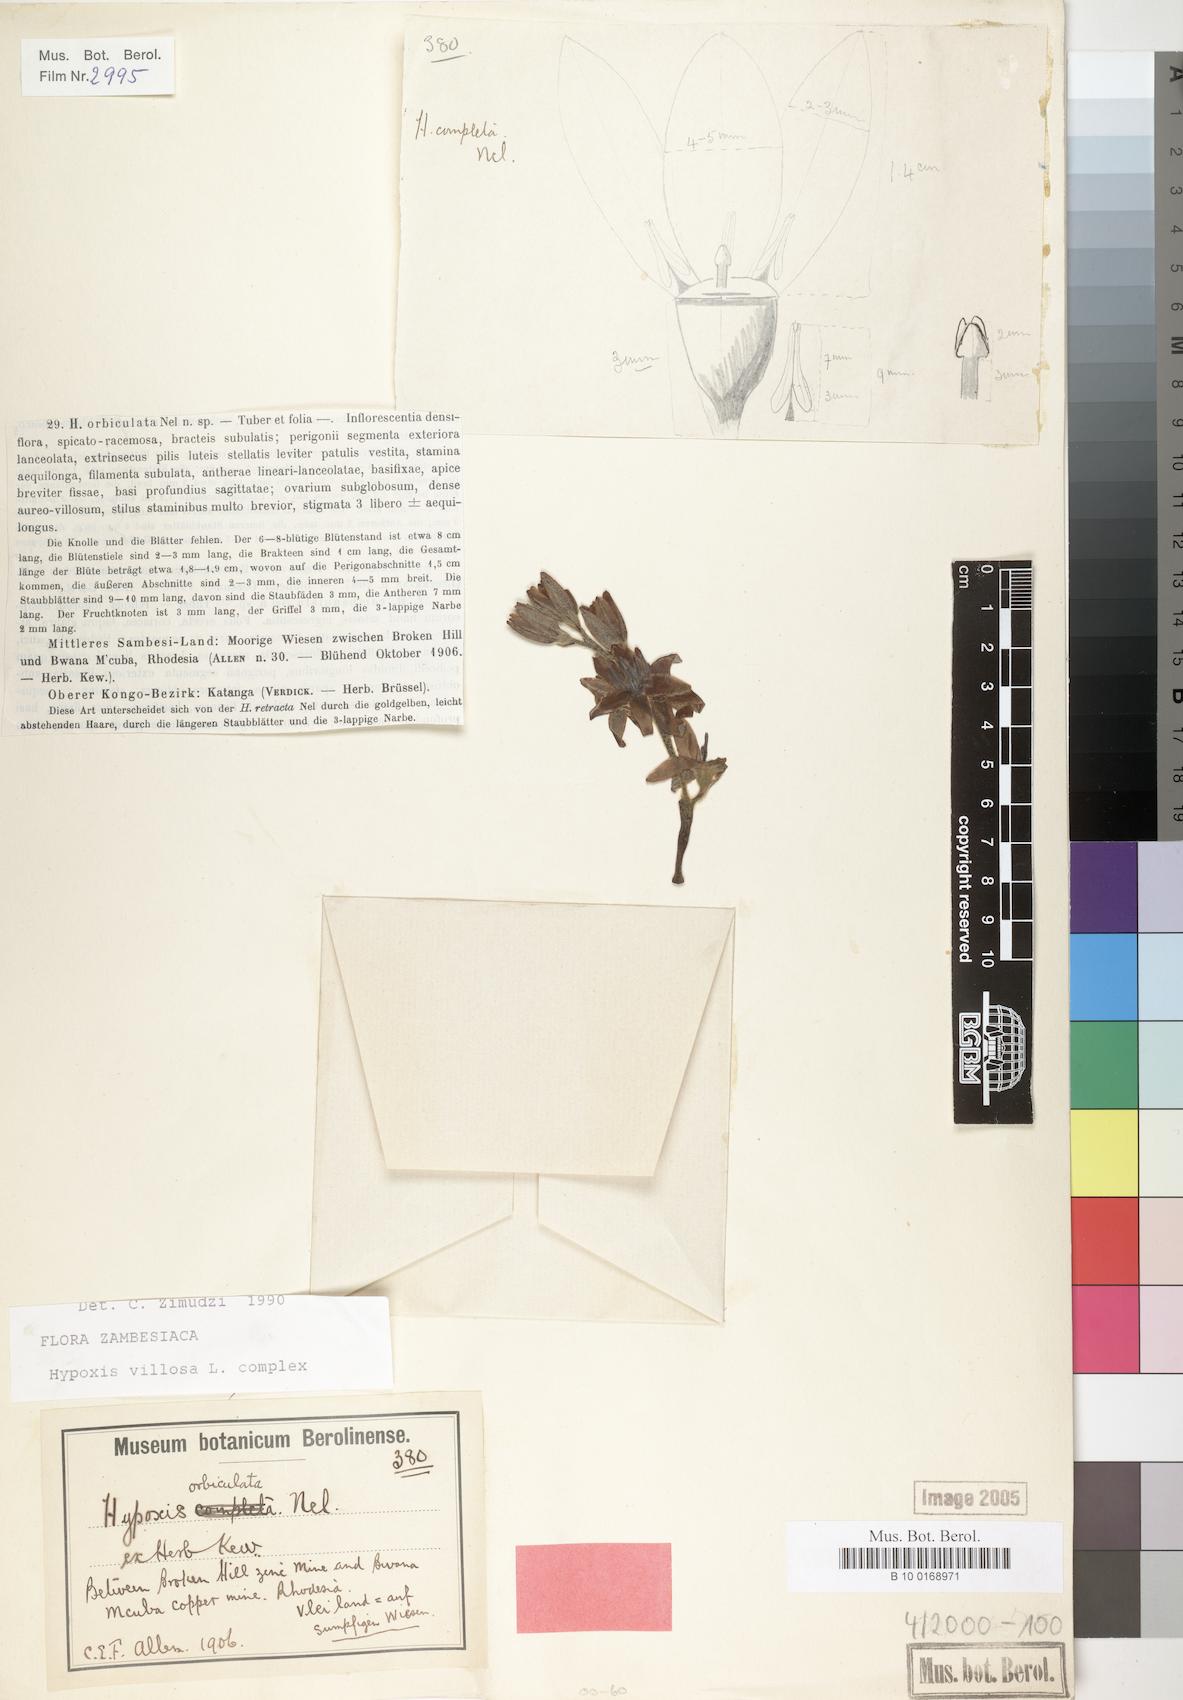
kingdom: Plantae
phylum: Tracheophyta
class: Liliopsida
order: Asparagales
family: Hypoxidaceae
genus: Hypoxis
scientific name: Hypoxis villosa
